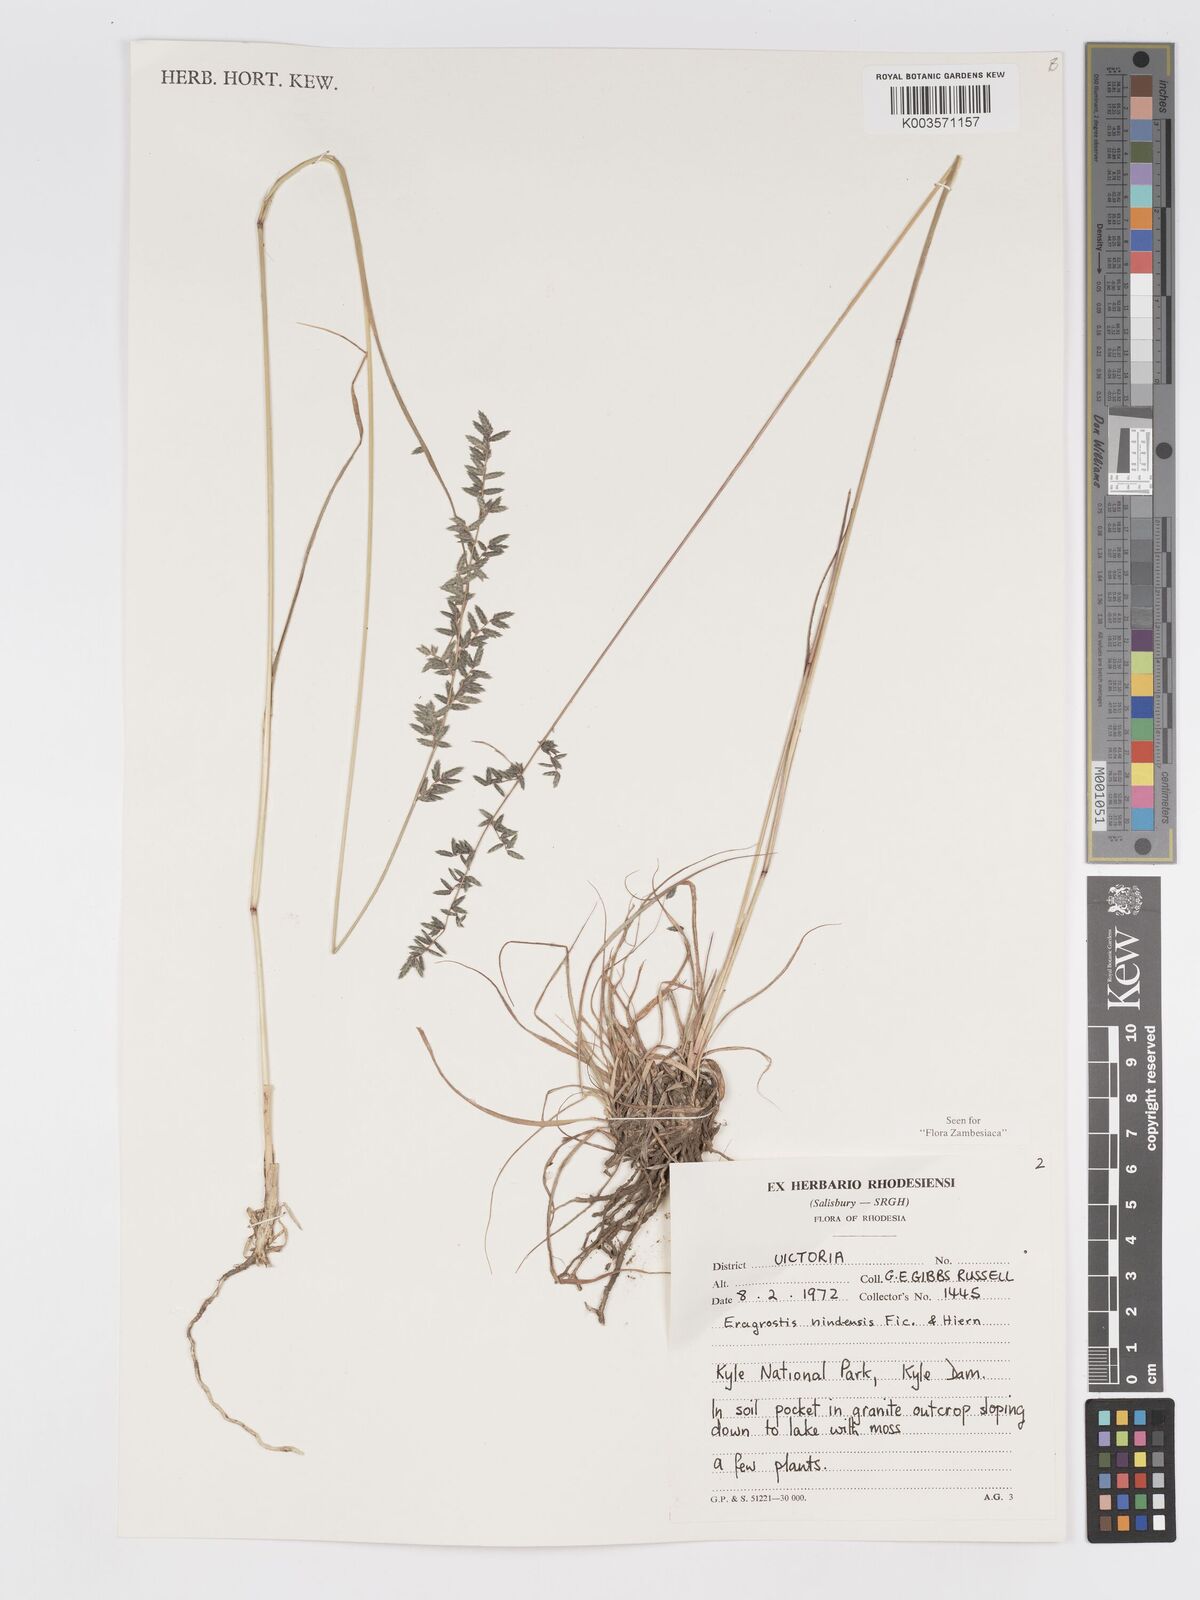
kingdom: Plantae
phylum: Tracheophyta
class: Liliopsida
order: Poales
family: Poaceae
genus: Eragrostis
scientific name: Eragrostis nindensis
